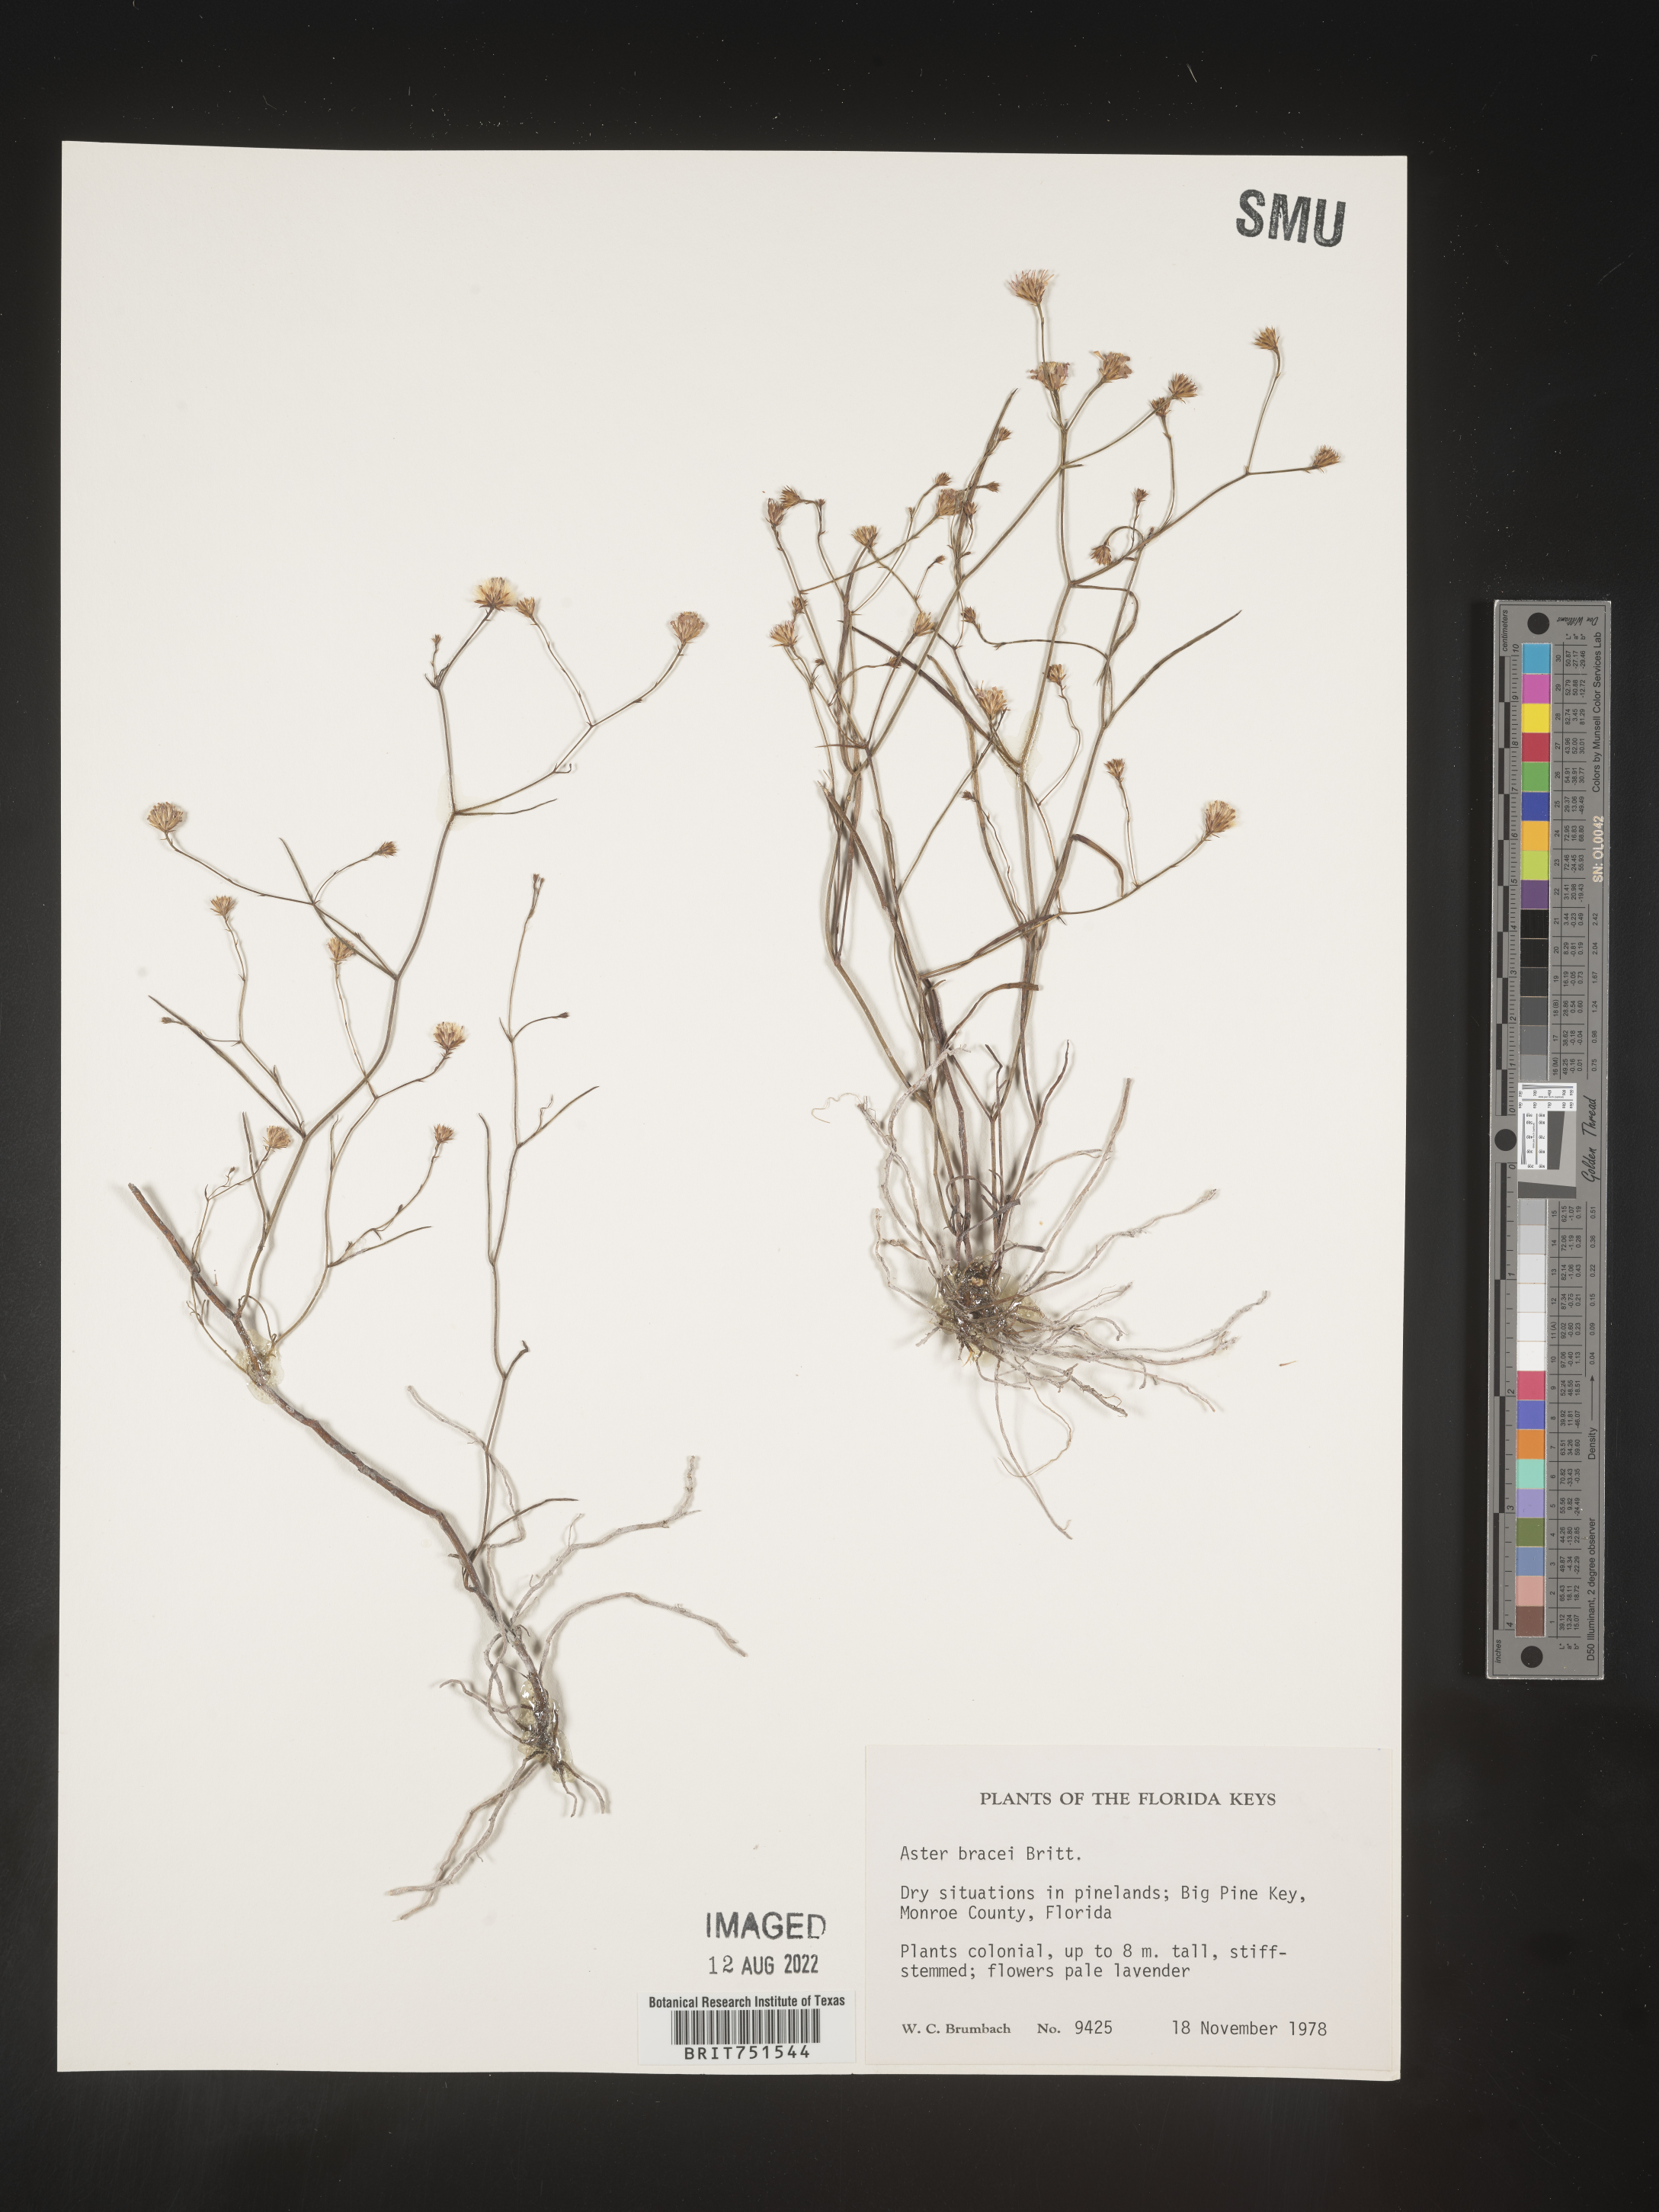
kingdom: Plantae
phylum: Tracheophyta
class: Magnoliopsida
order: Asterales
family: Asteraceae
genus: Symphyotrichum
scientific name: Symphyotrichum tenuifolium
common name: Perennial salt-marsh aster
